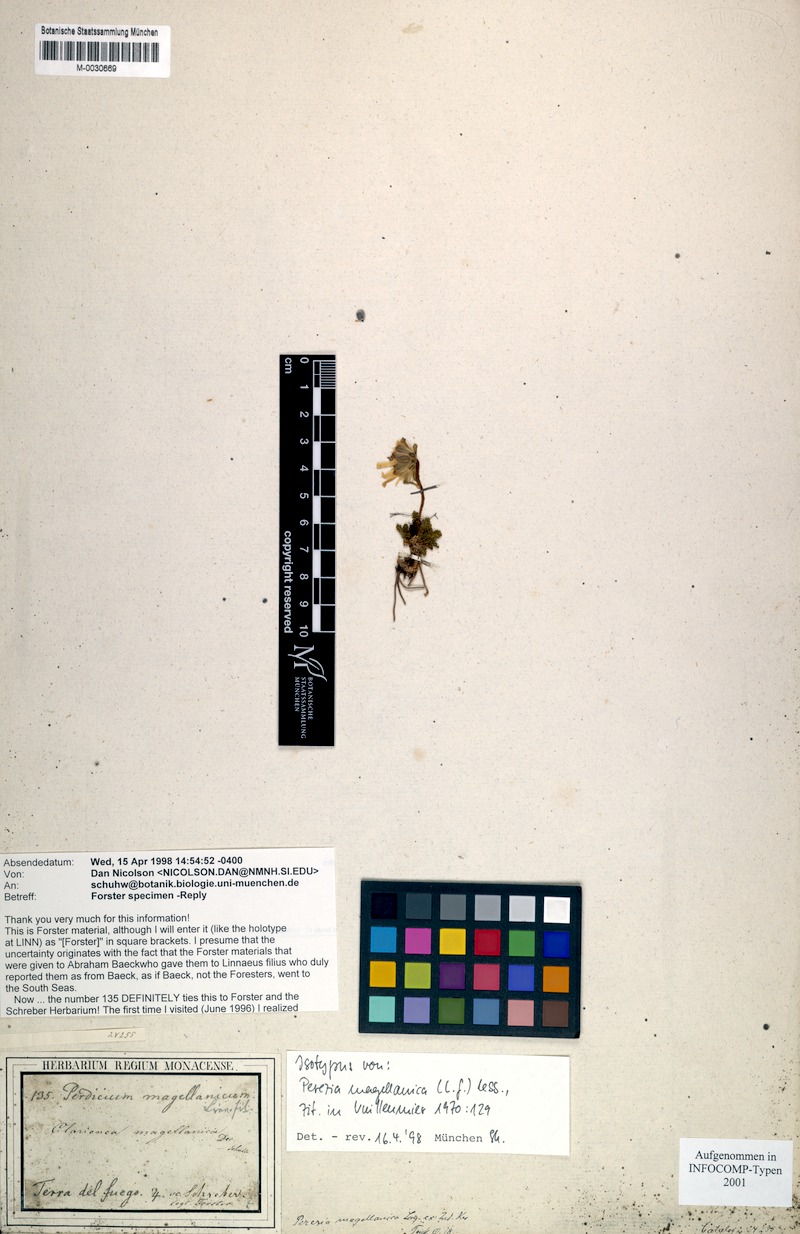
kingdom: Plantae
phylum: Tracheophyta
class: Magnoliopsida
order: Asterales
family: Asteraceae
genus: Perezia
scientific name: Perezia magellanica
